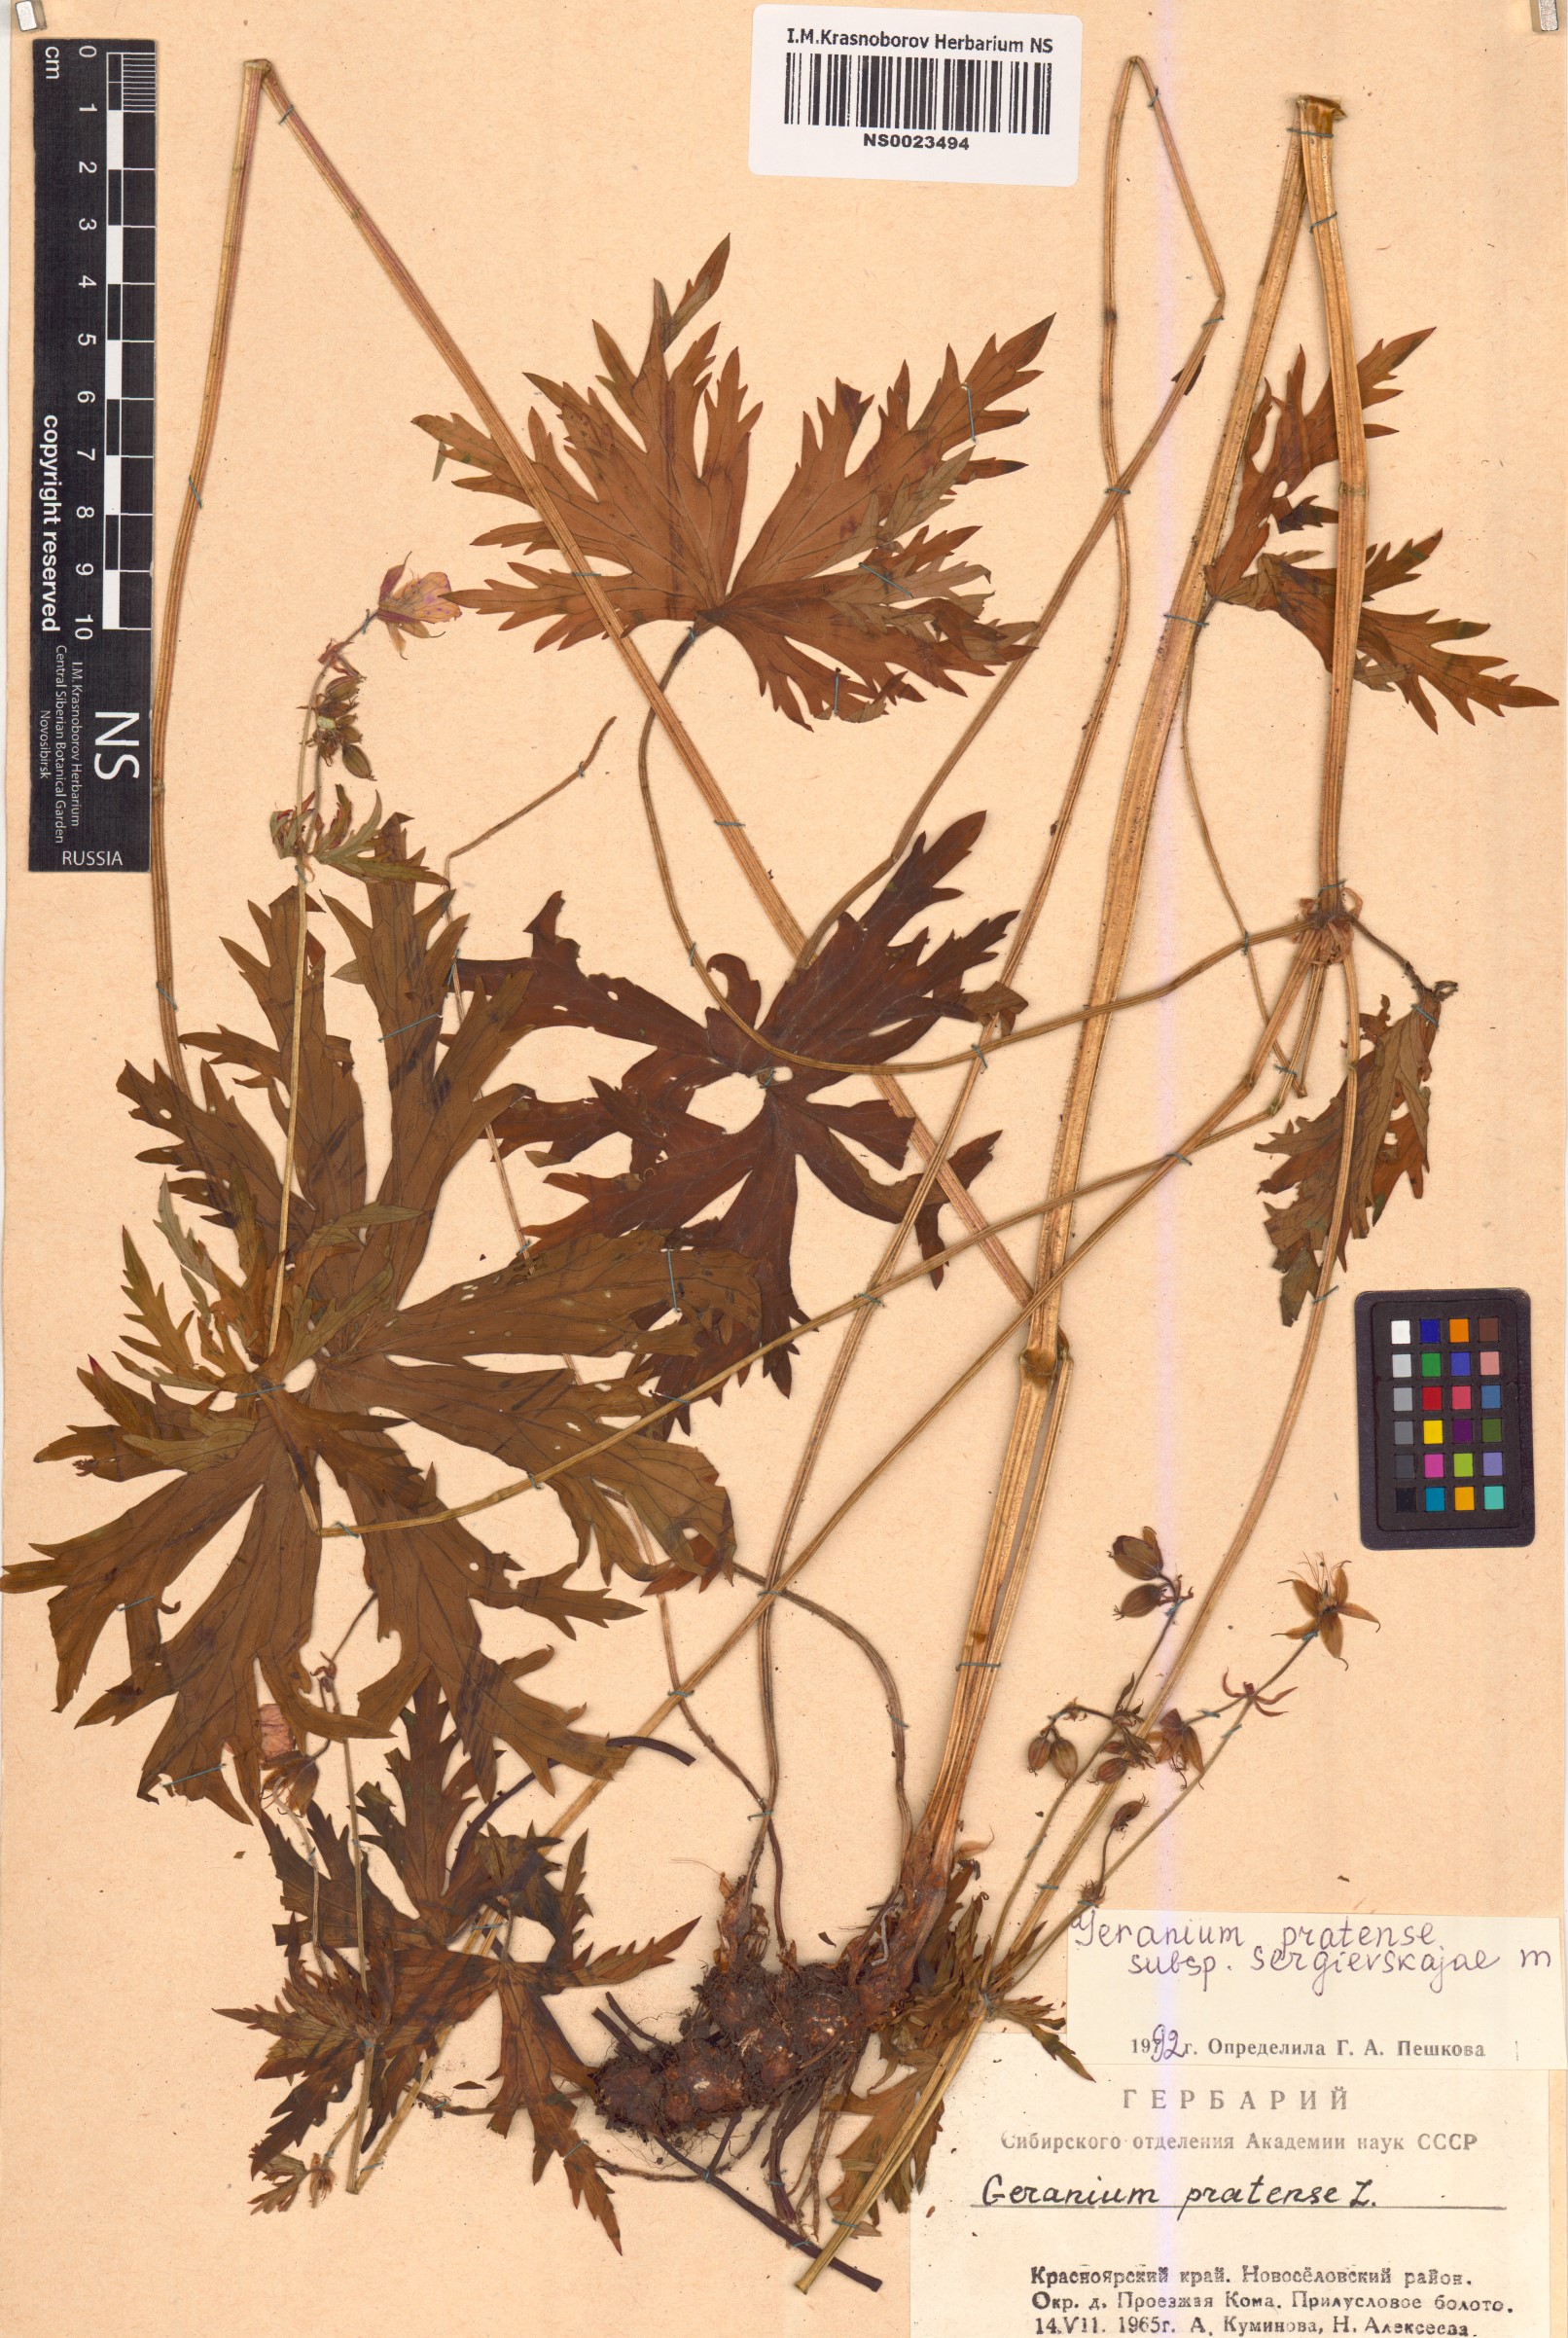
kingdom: Plantae
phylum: Tracheophyta
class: Magnoliopsida
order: Geraniales
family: Geraniaceae
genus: Geranium
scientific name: Geranium pratense
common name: Meadow crane's-bill
